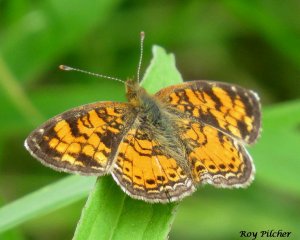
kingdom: Animalia
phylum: Arthropoda
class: Insecta
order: Lepidoptera
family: Nymphalidae
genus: Phyciodes
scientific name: Phyciodes tharos
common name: Northern Crescent
